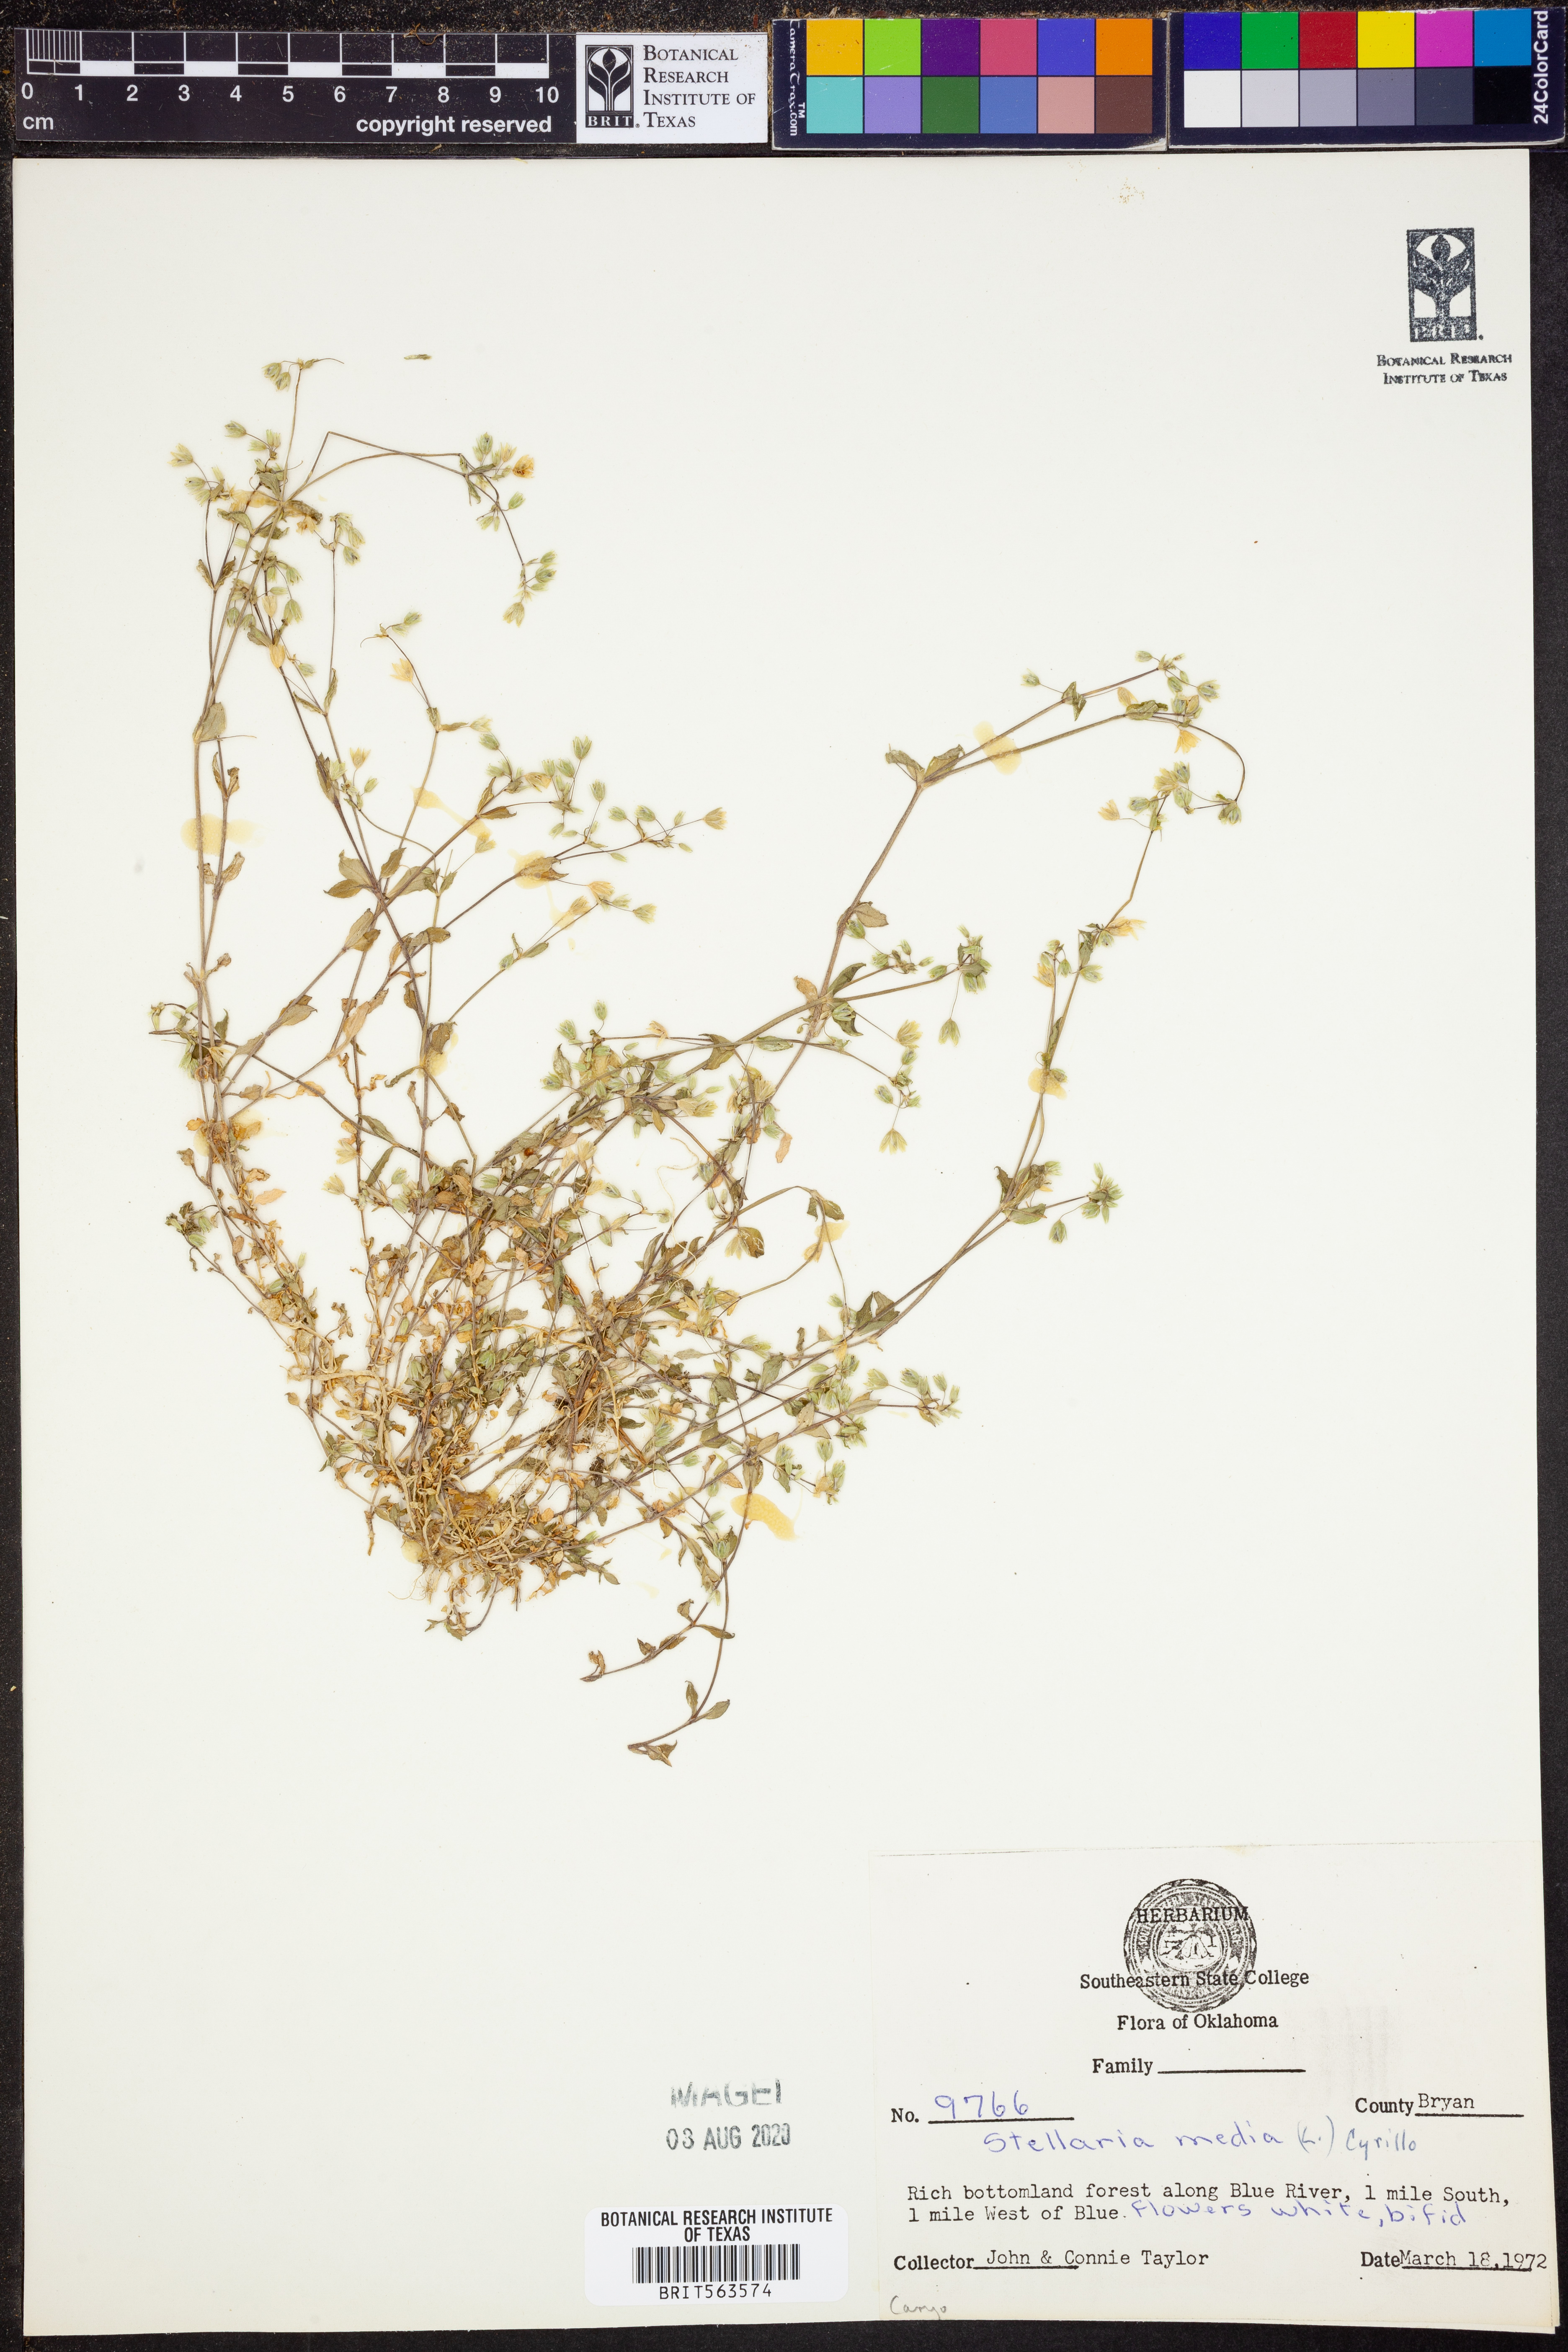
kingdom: Plantae
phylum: Tracheophyta
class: Magnoliopsida
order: Caryophyllales
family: Caryophyllaceae
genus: Stellaria
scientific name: Stellaria media
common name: Common chickweed
